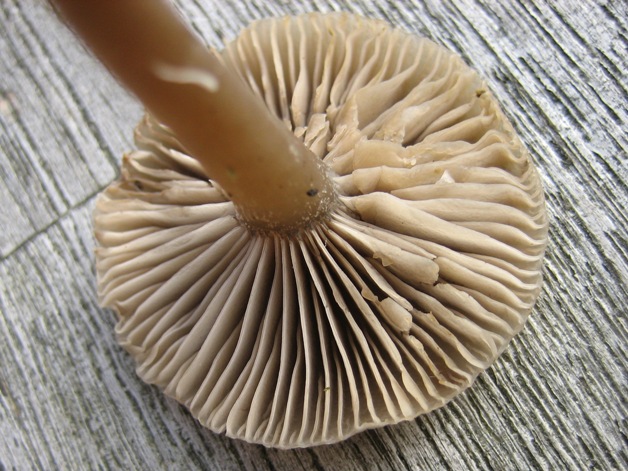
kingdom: Fungi
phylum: Basidiomycota
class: Agaricomycetes
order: Agaricales
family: Tricholomataceae
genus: Clitocybe
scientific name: Clitocybe metachroa
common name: grå tragthat
